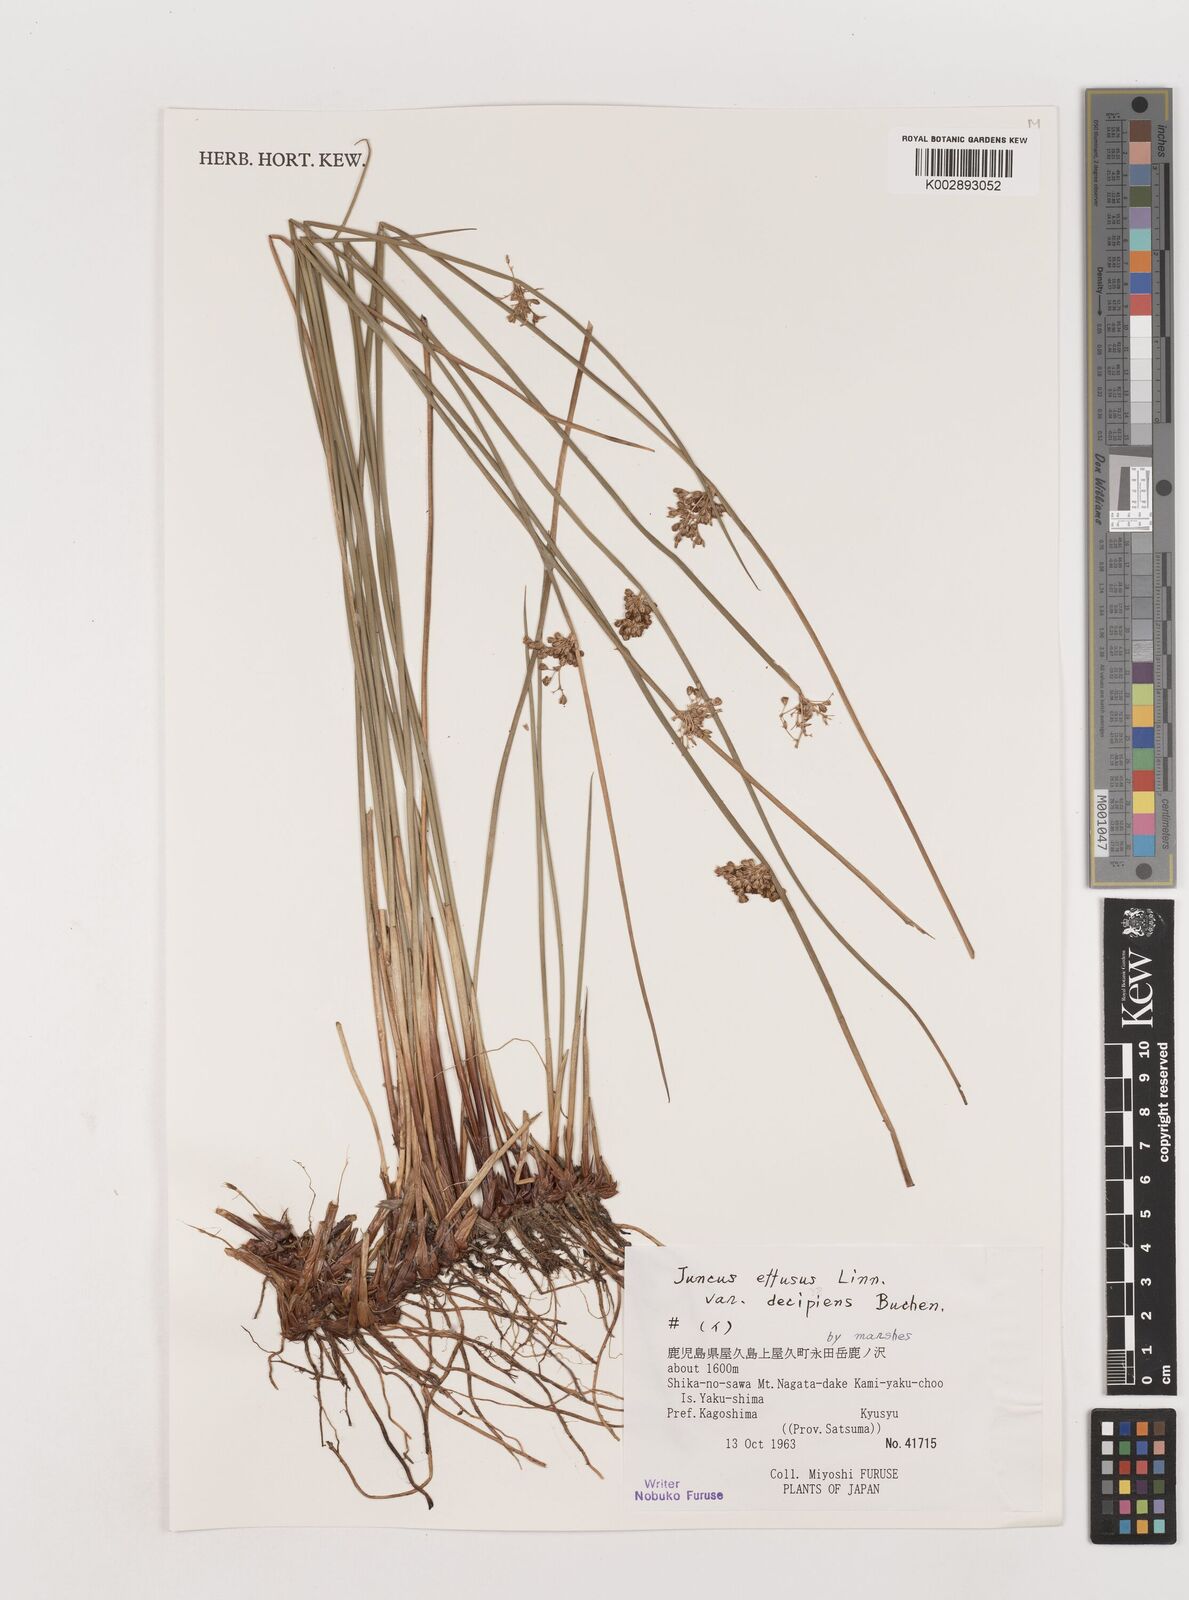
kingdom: Plantae
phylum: Tracheophyta
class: Liliopsida
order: Poales
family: Juncaceae
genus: Juncus
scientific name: Juncus effusus
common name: Soft rush
